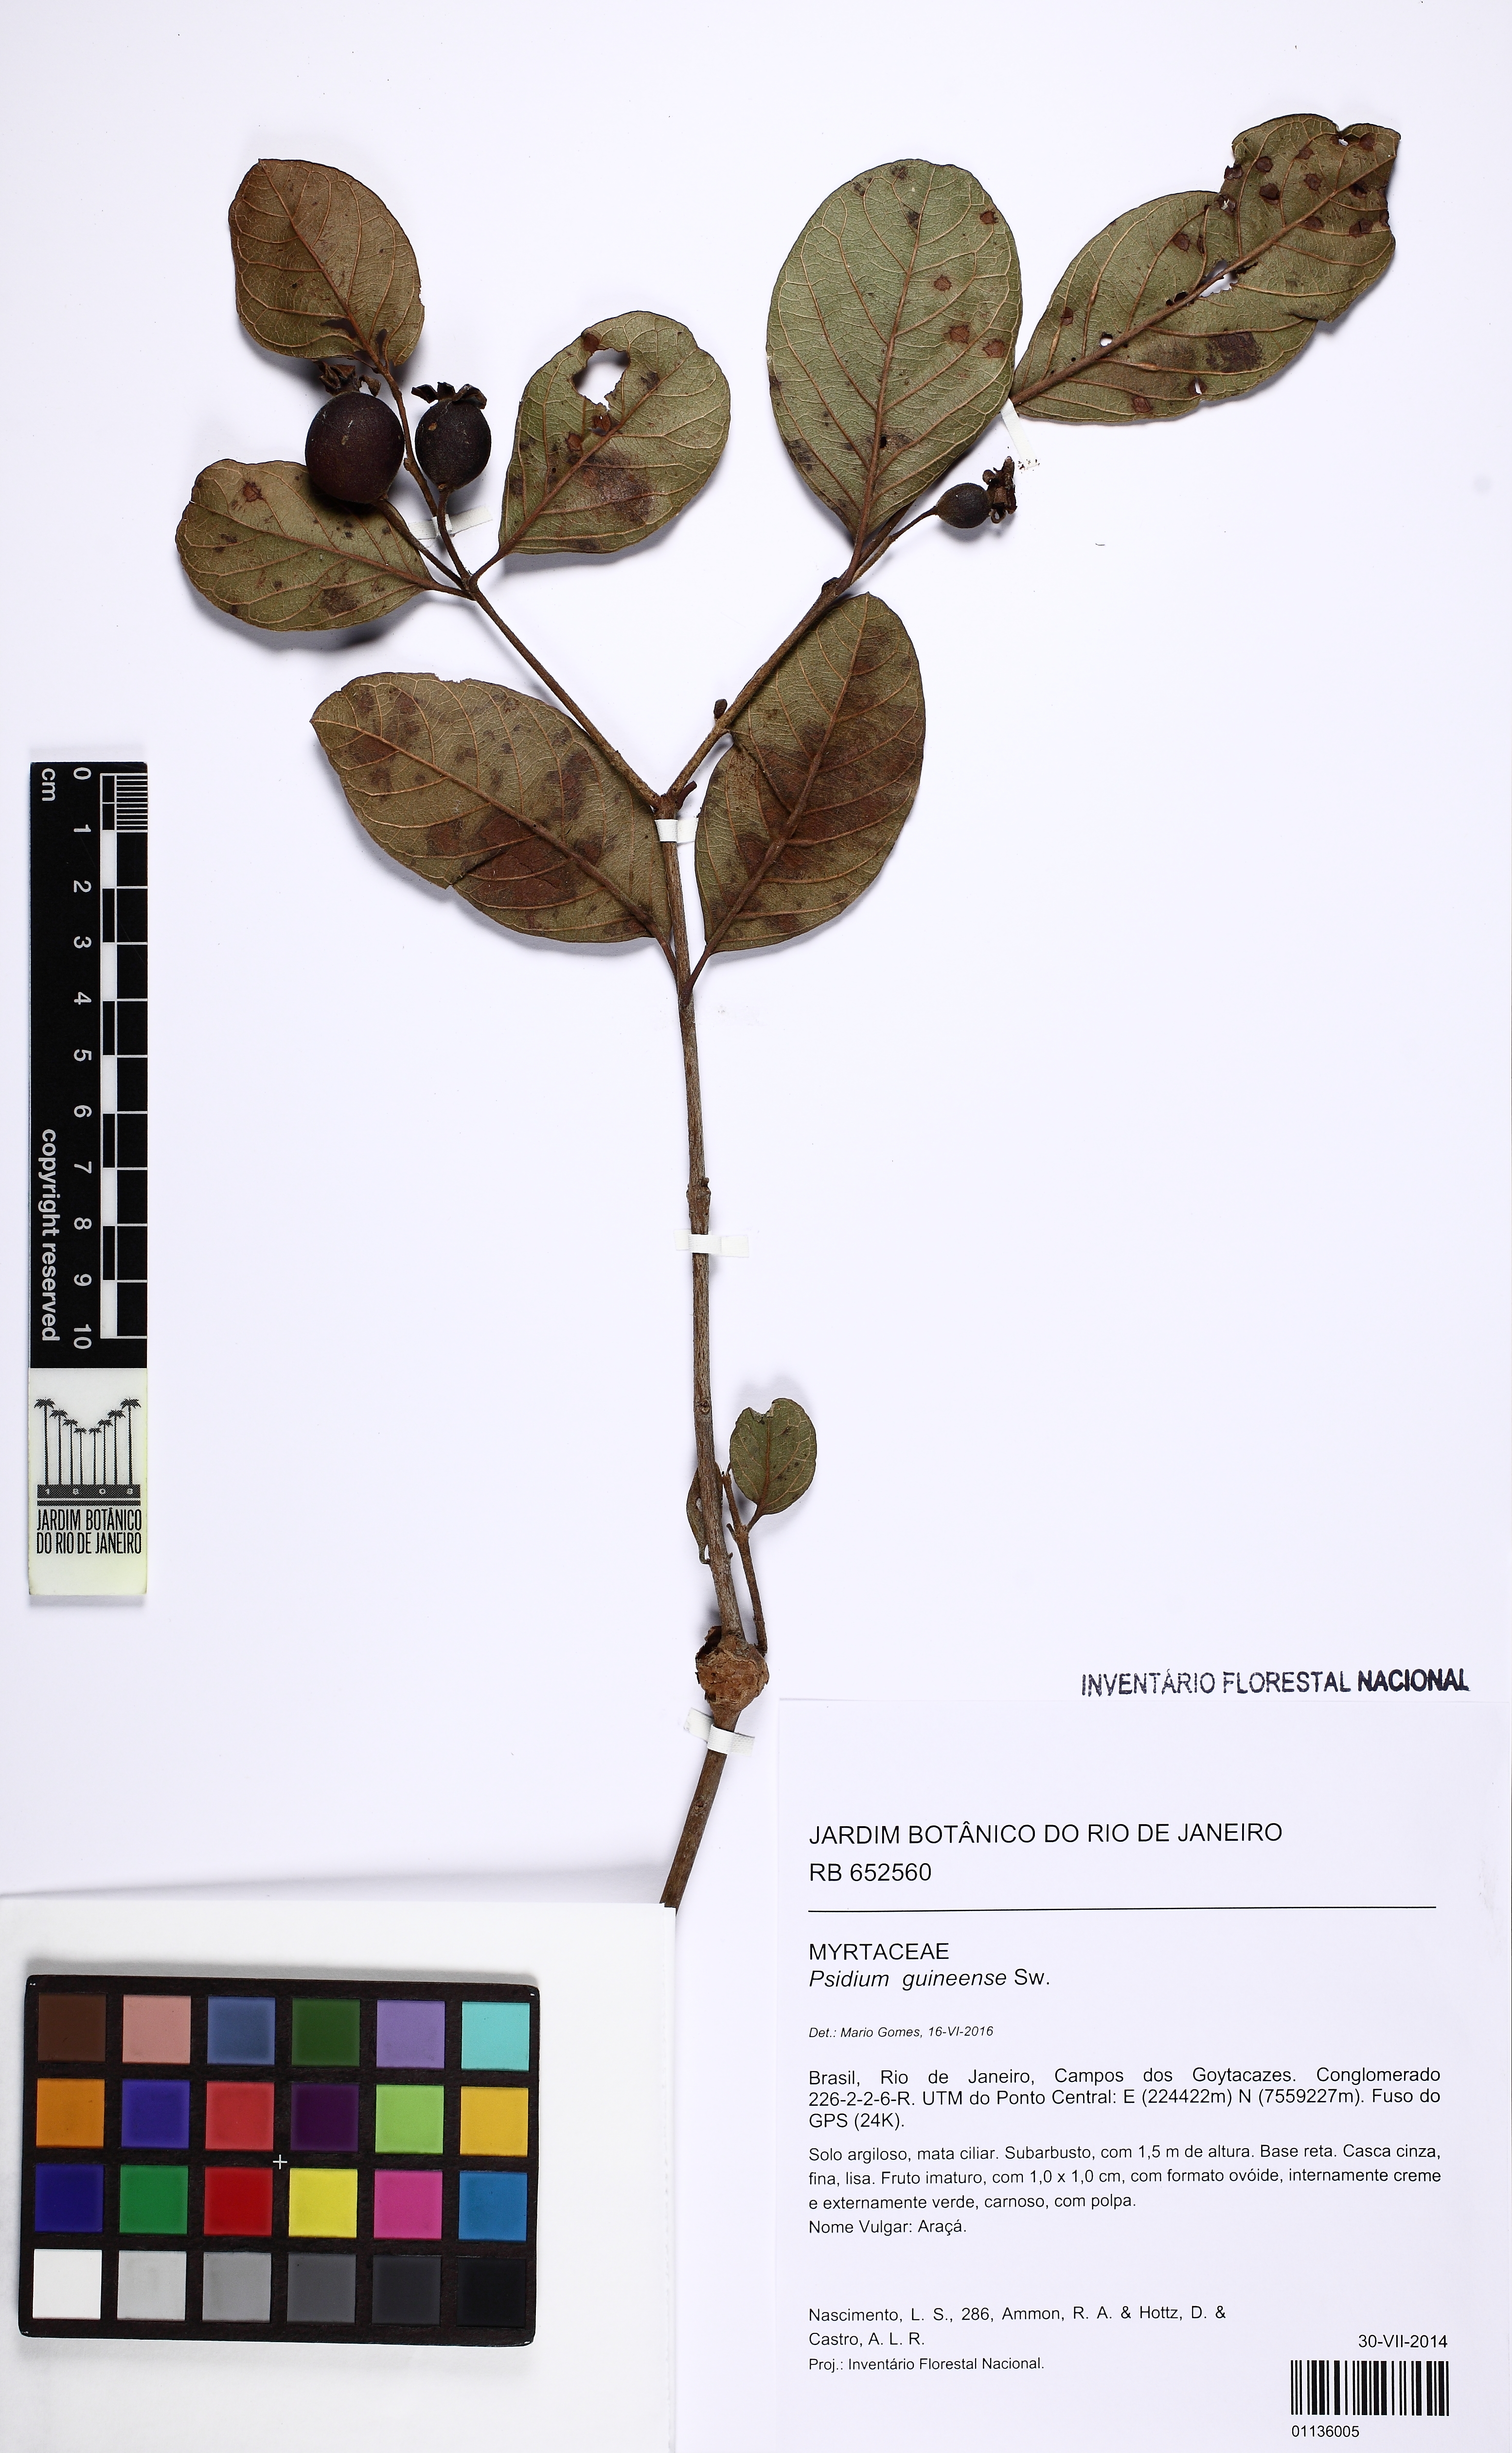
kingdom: Plantae
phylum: Tracheophyta
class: Magnoliopsida
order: Myrtales
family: Myrtaceae
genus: Psidium
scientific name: Psidium guineense
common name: Brazilian guava
